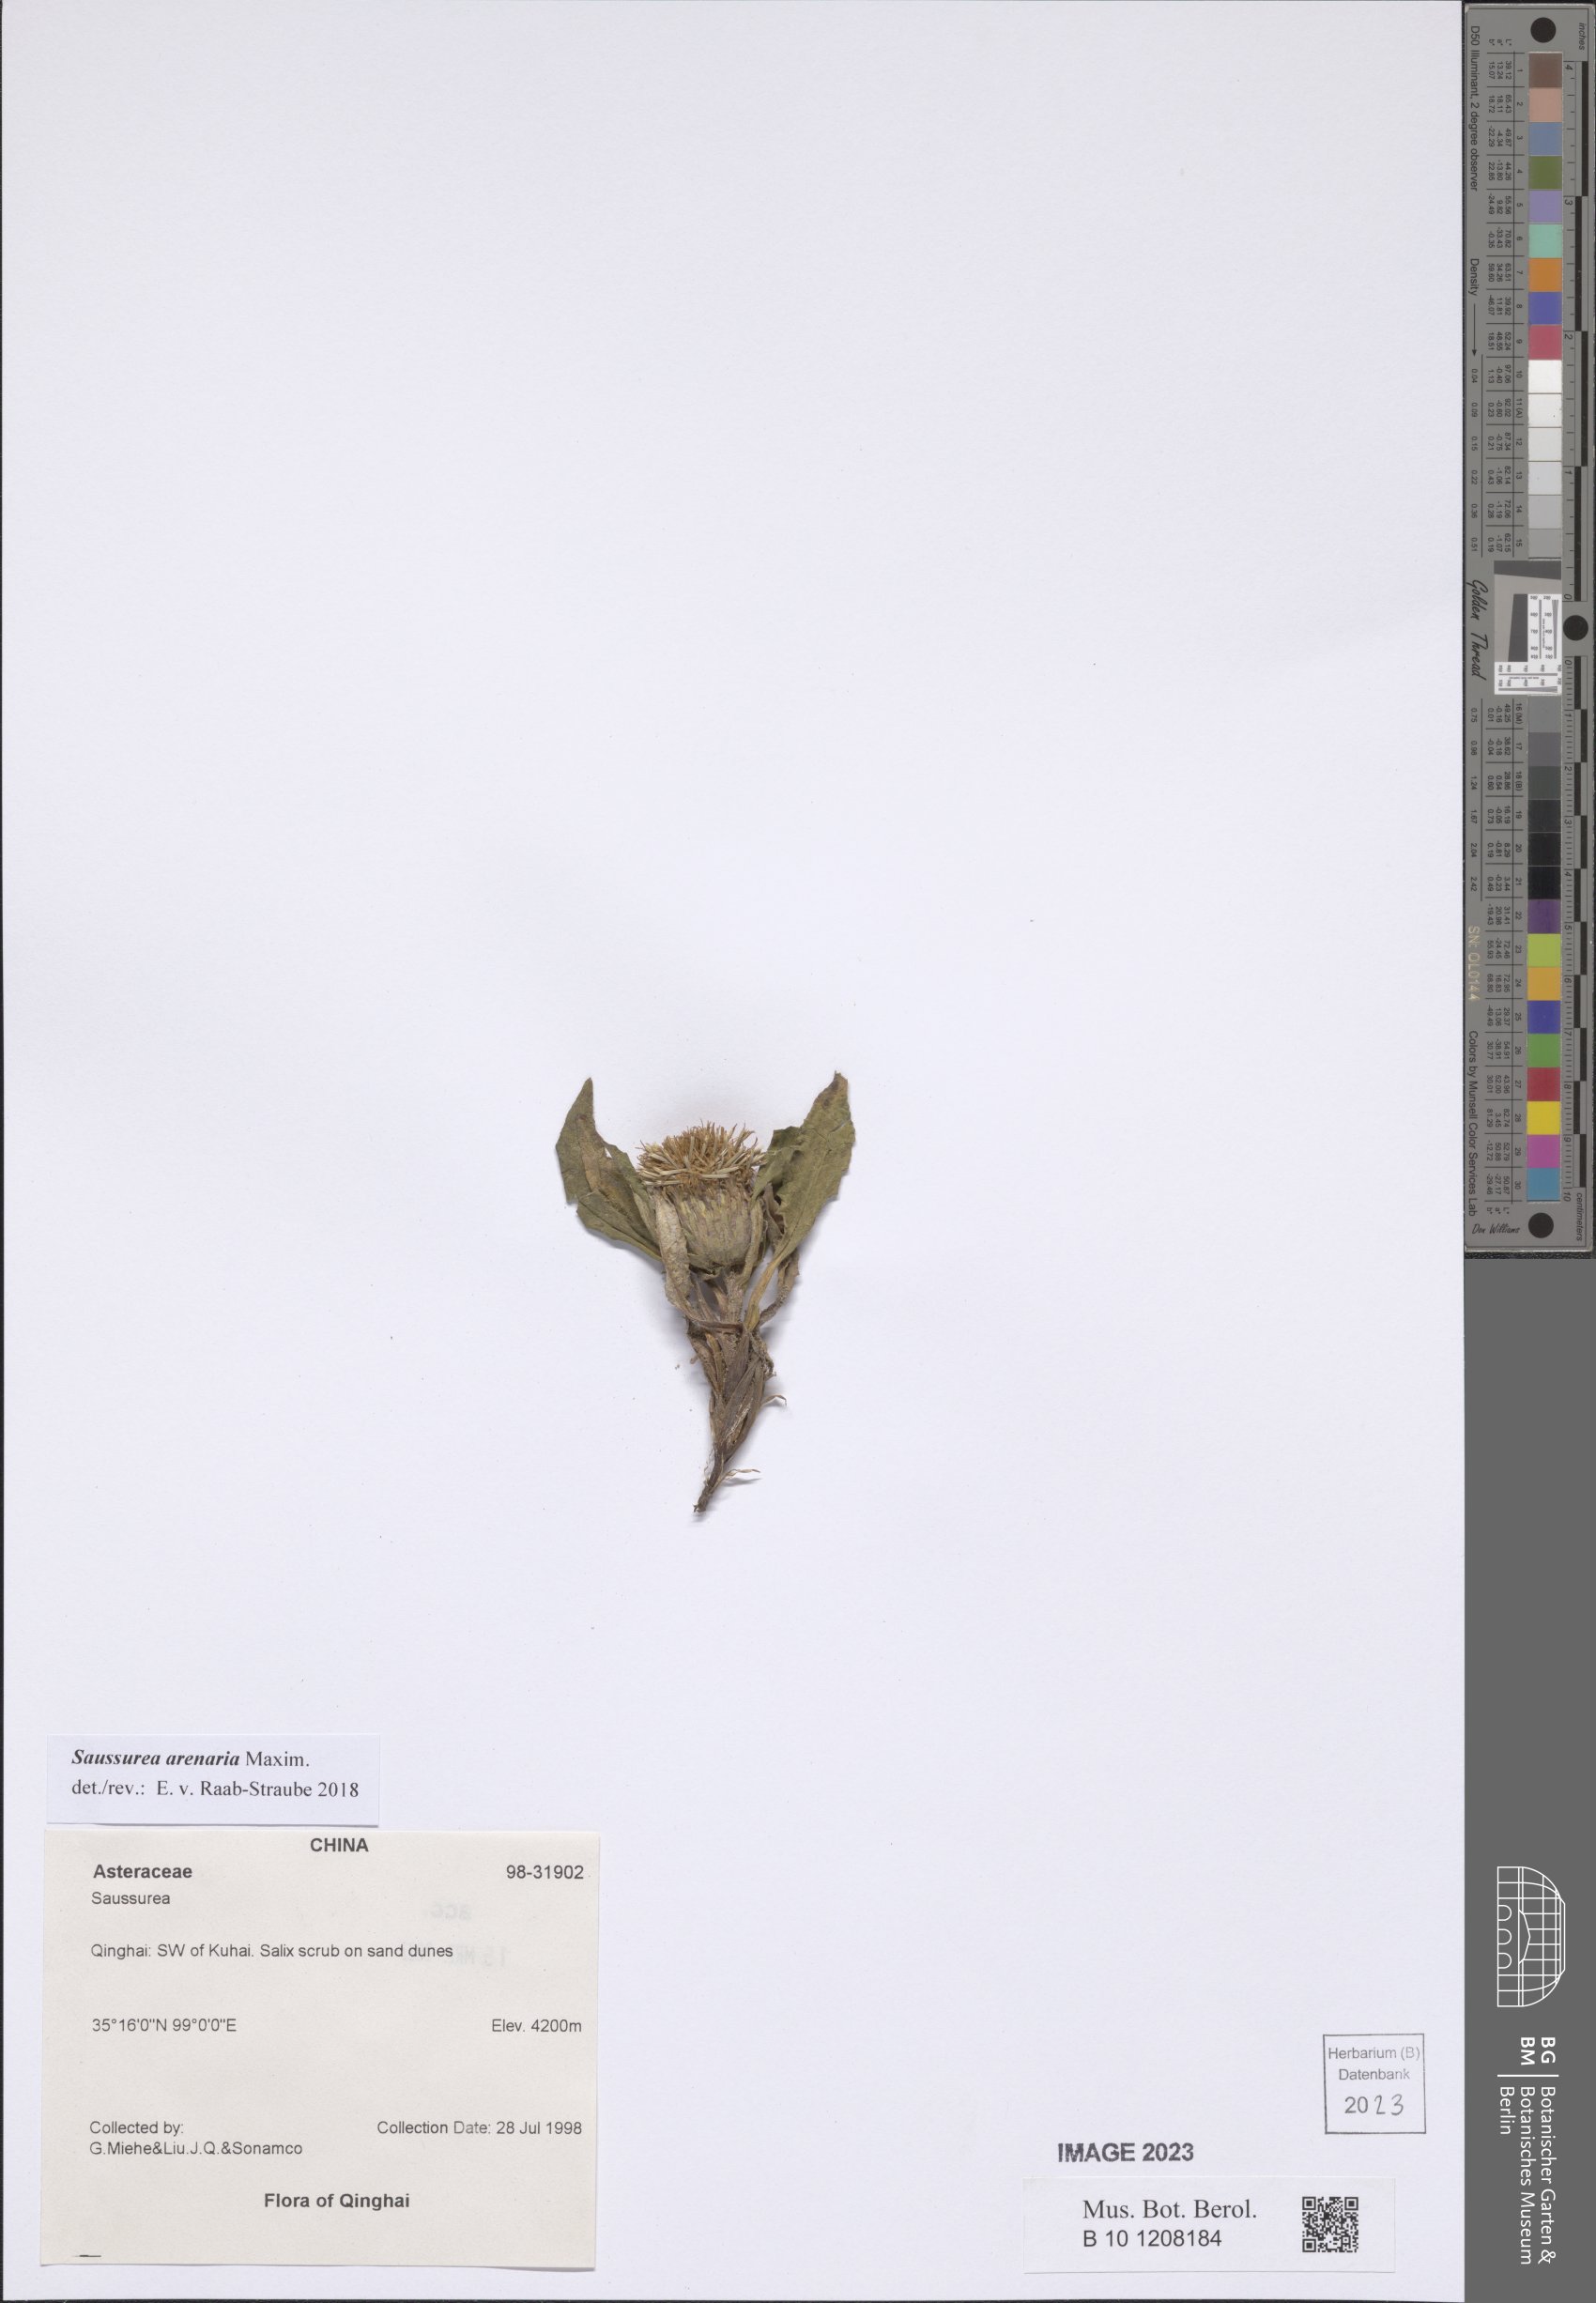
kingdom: Plantae
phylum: Tracheophyta
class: Magnoliopsida
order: Asterales
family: Asteraceae
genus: Saussurea
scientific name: Saussurea arenaria
